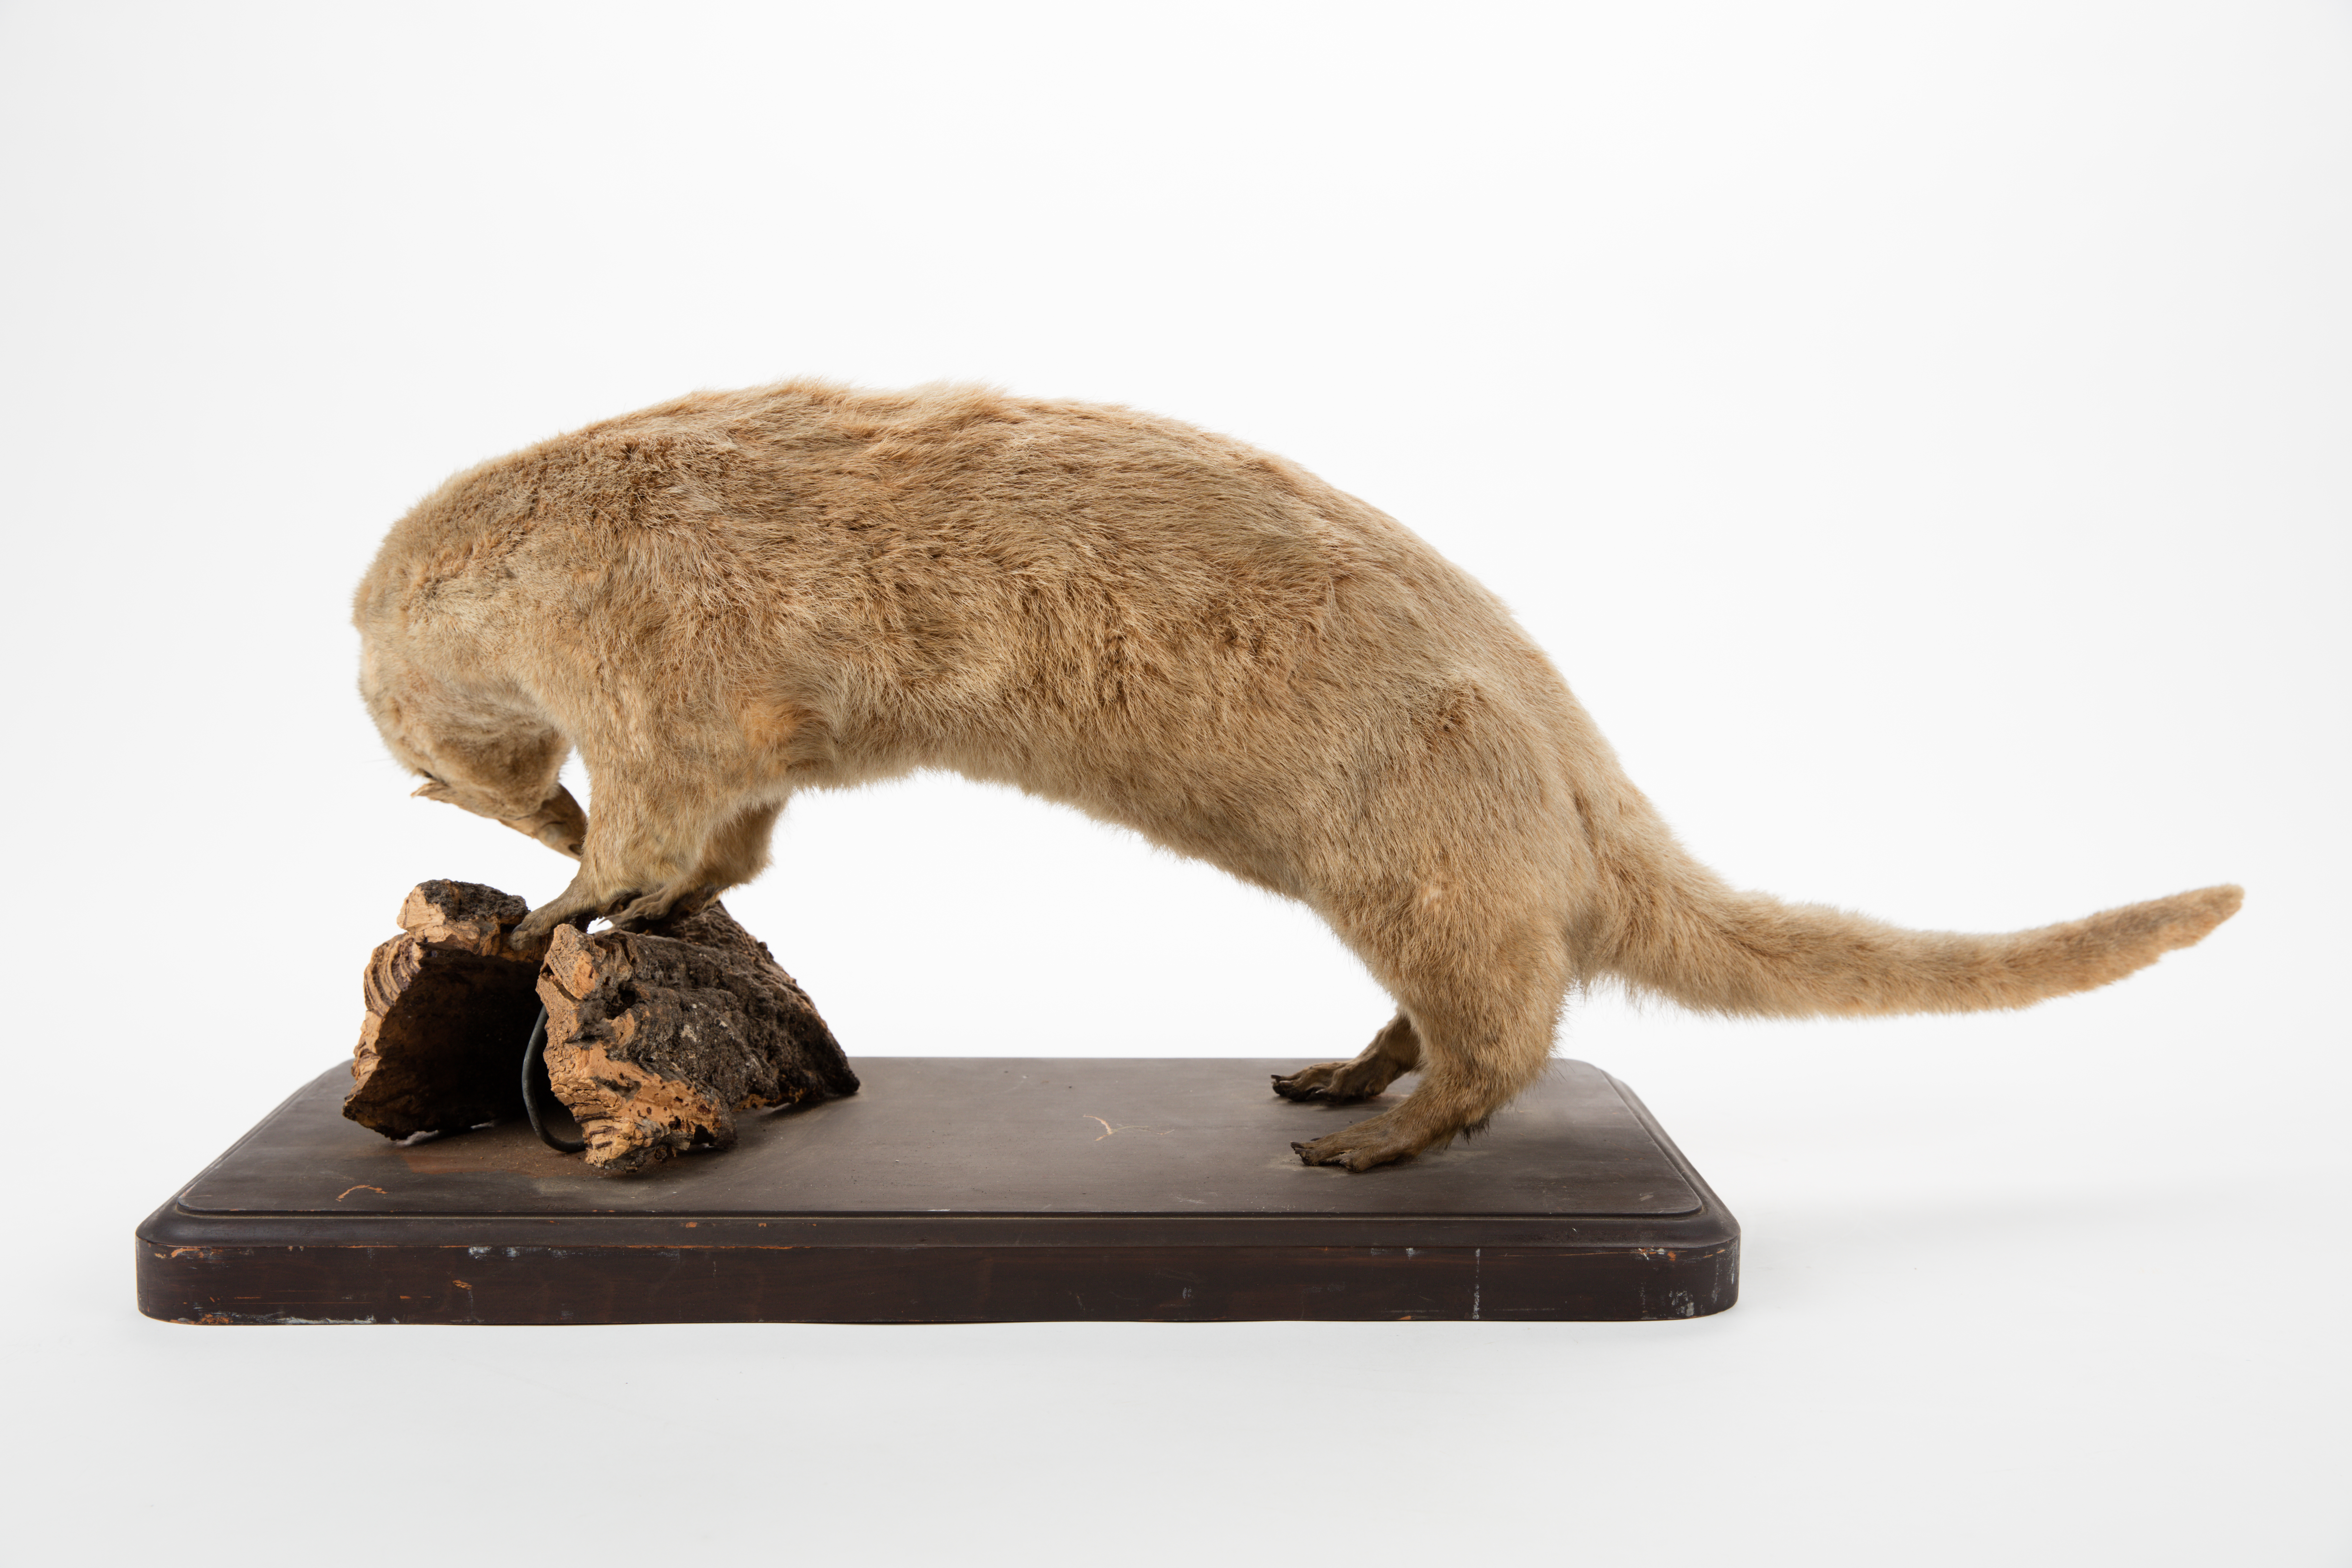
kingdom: Animalia
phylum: Chordata
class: Mammalia
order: Carnivora
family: Mustelidae
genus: Lutra
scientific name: Lutra lutra
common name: European otter
